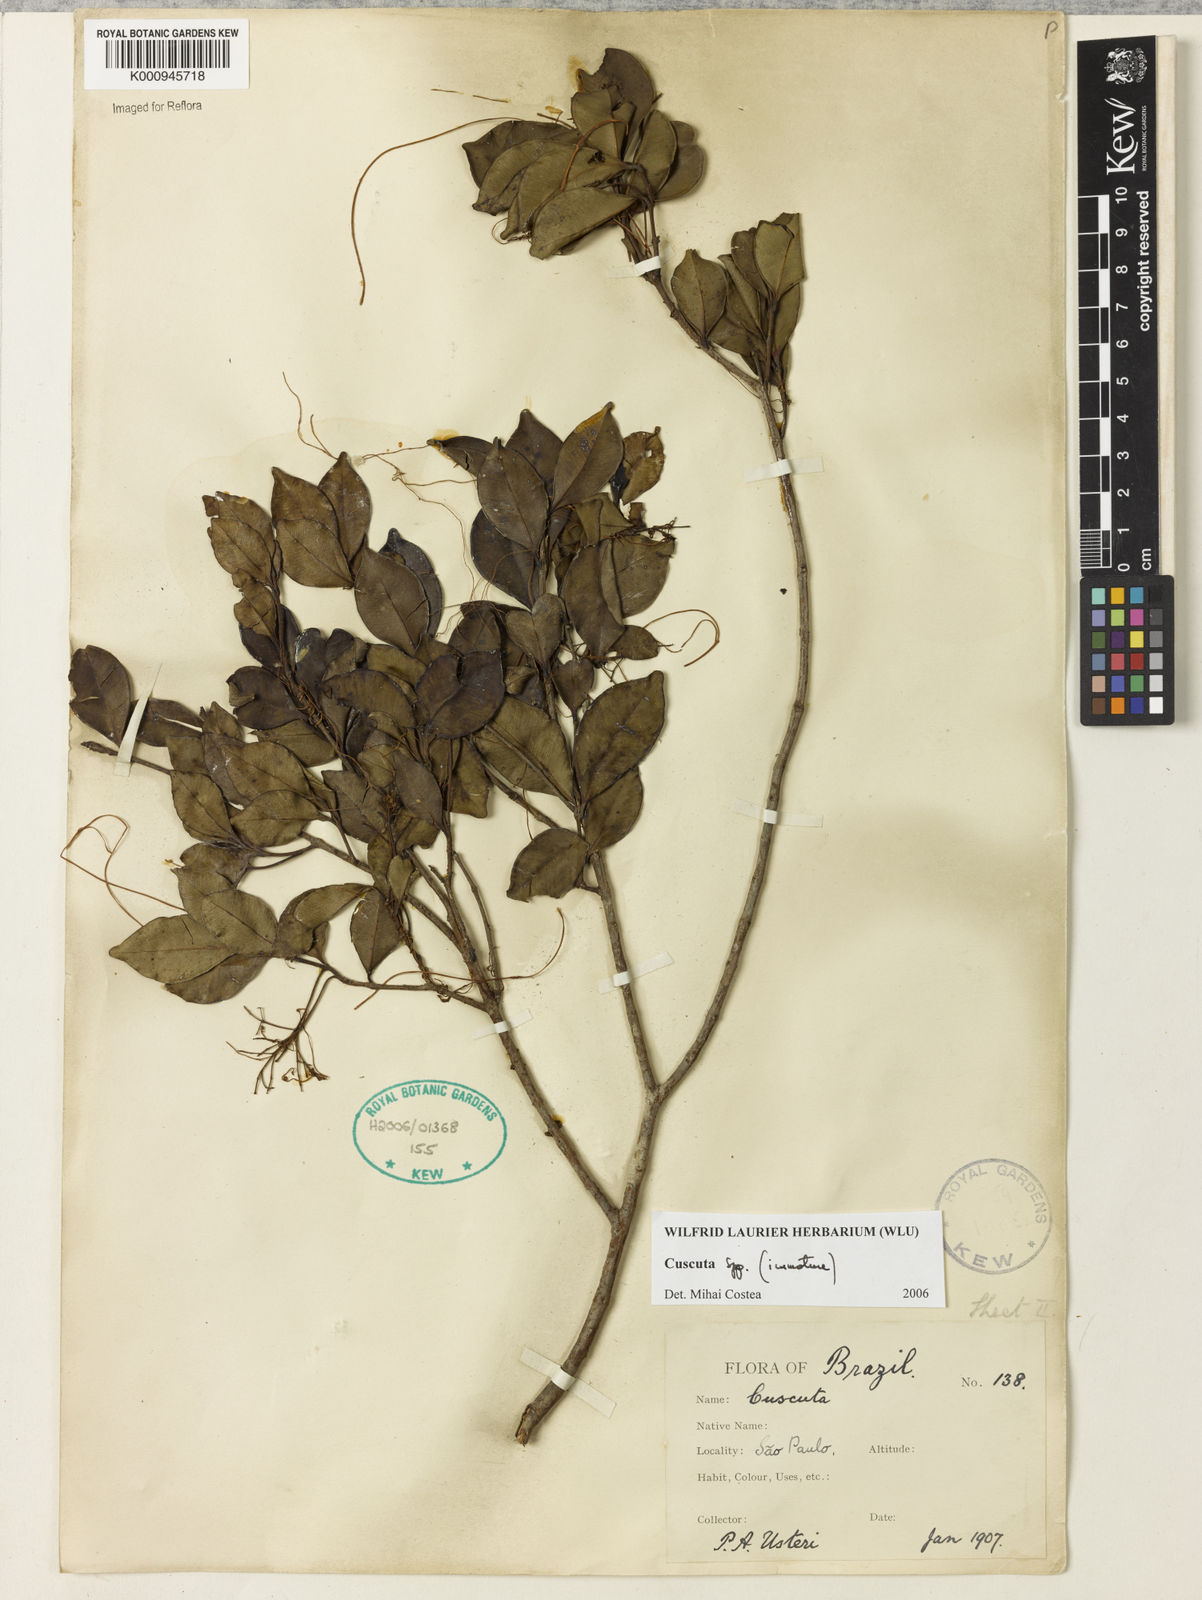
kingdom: Plantae
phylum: Tracheophyta
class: Magnoliopsida
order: Solanales
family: Convolvulaceae
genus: Cuscuta
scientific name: Cuscuta
